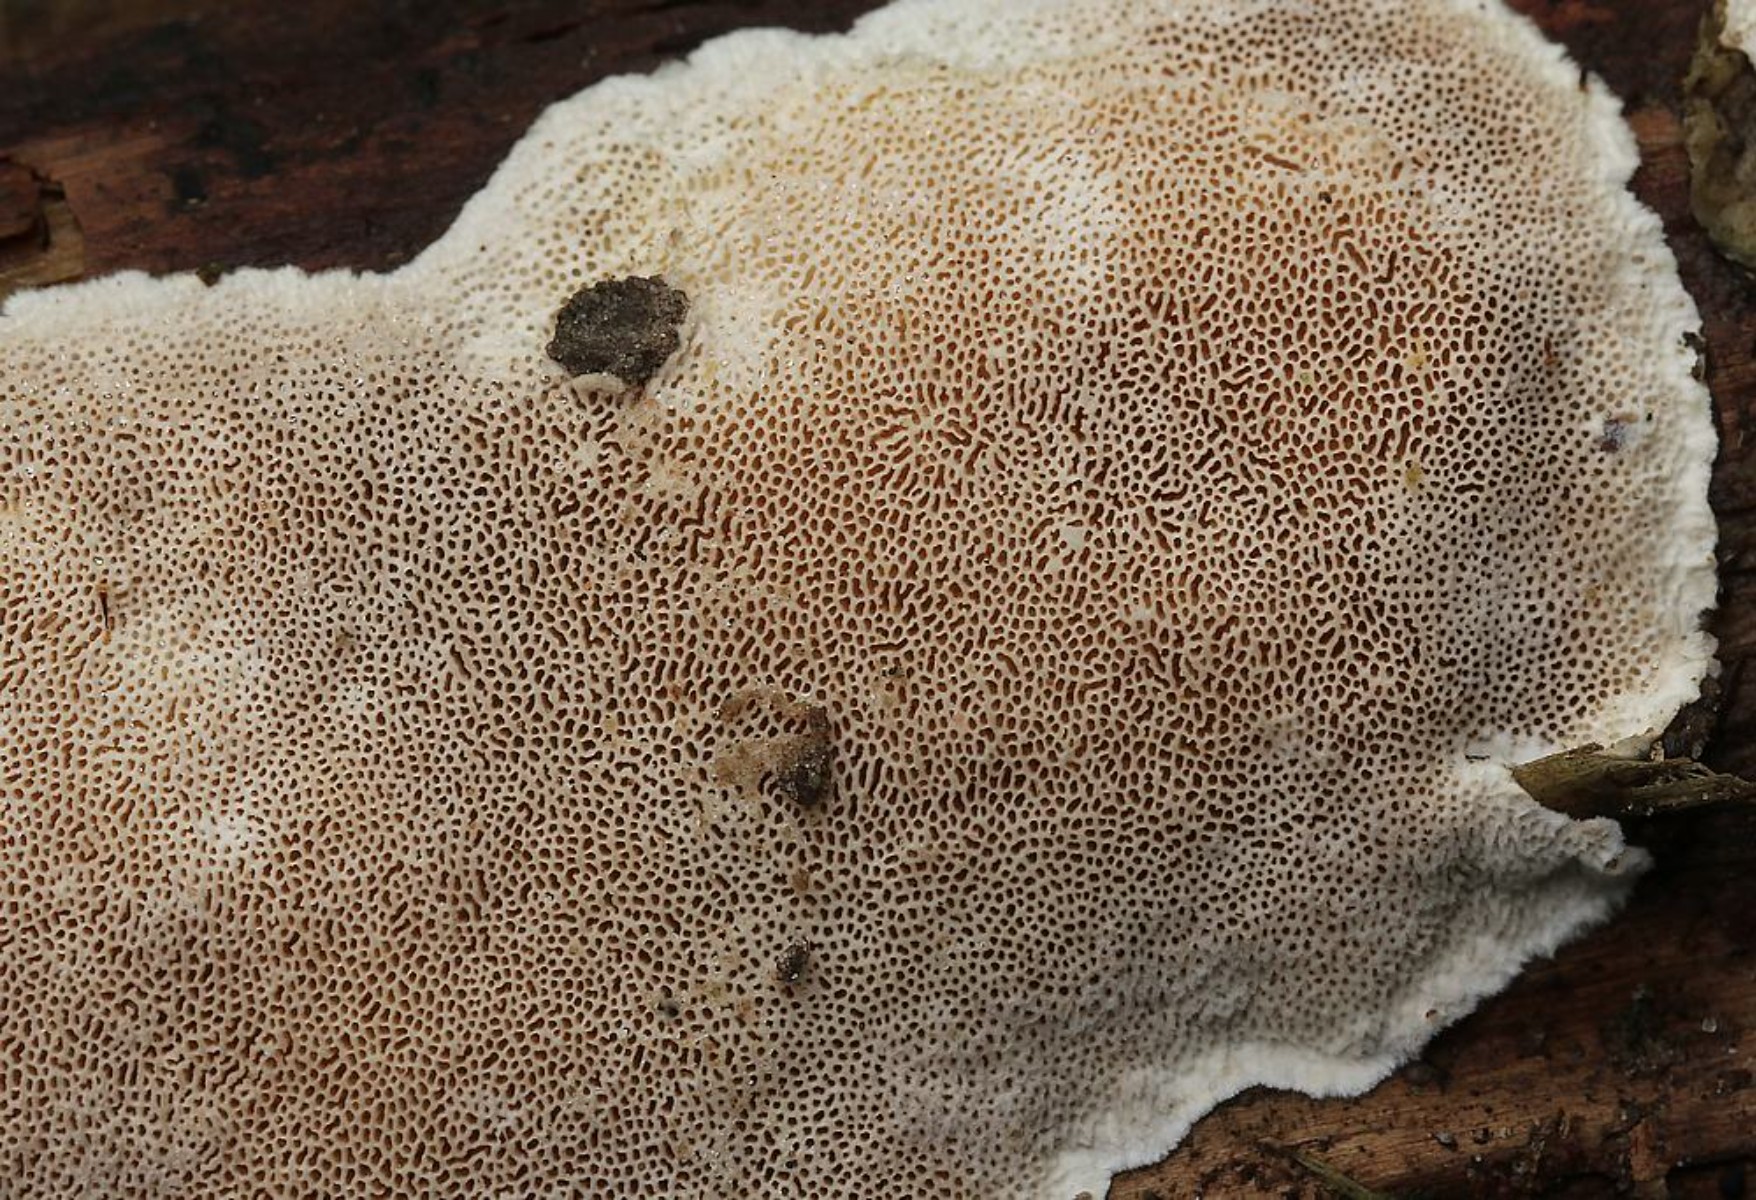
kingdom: Fungi
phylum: Basidiomycota
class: Agaricomycetes
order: Polyporales
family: Steccherinaceae
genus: Junghuhnia
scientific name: Junghuhnia nitida
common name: almindelig skønporesvamp
